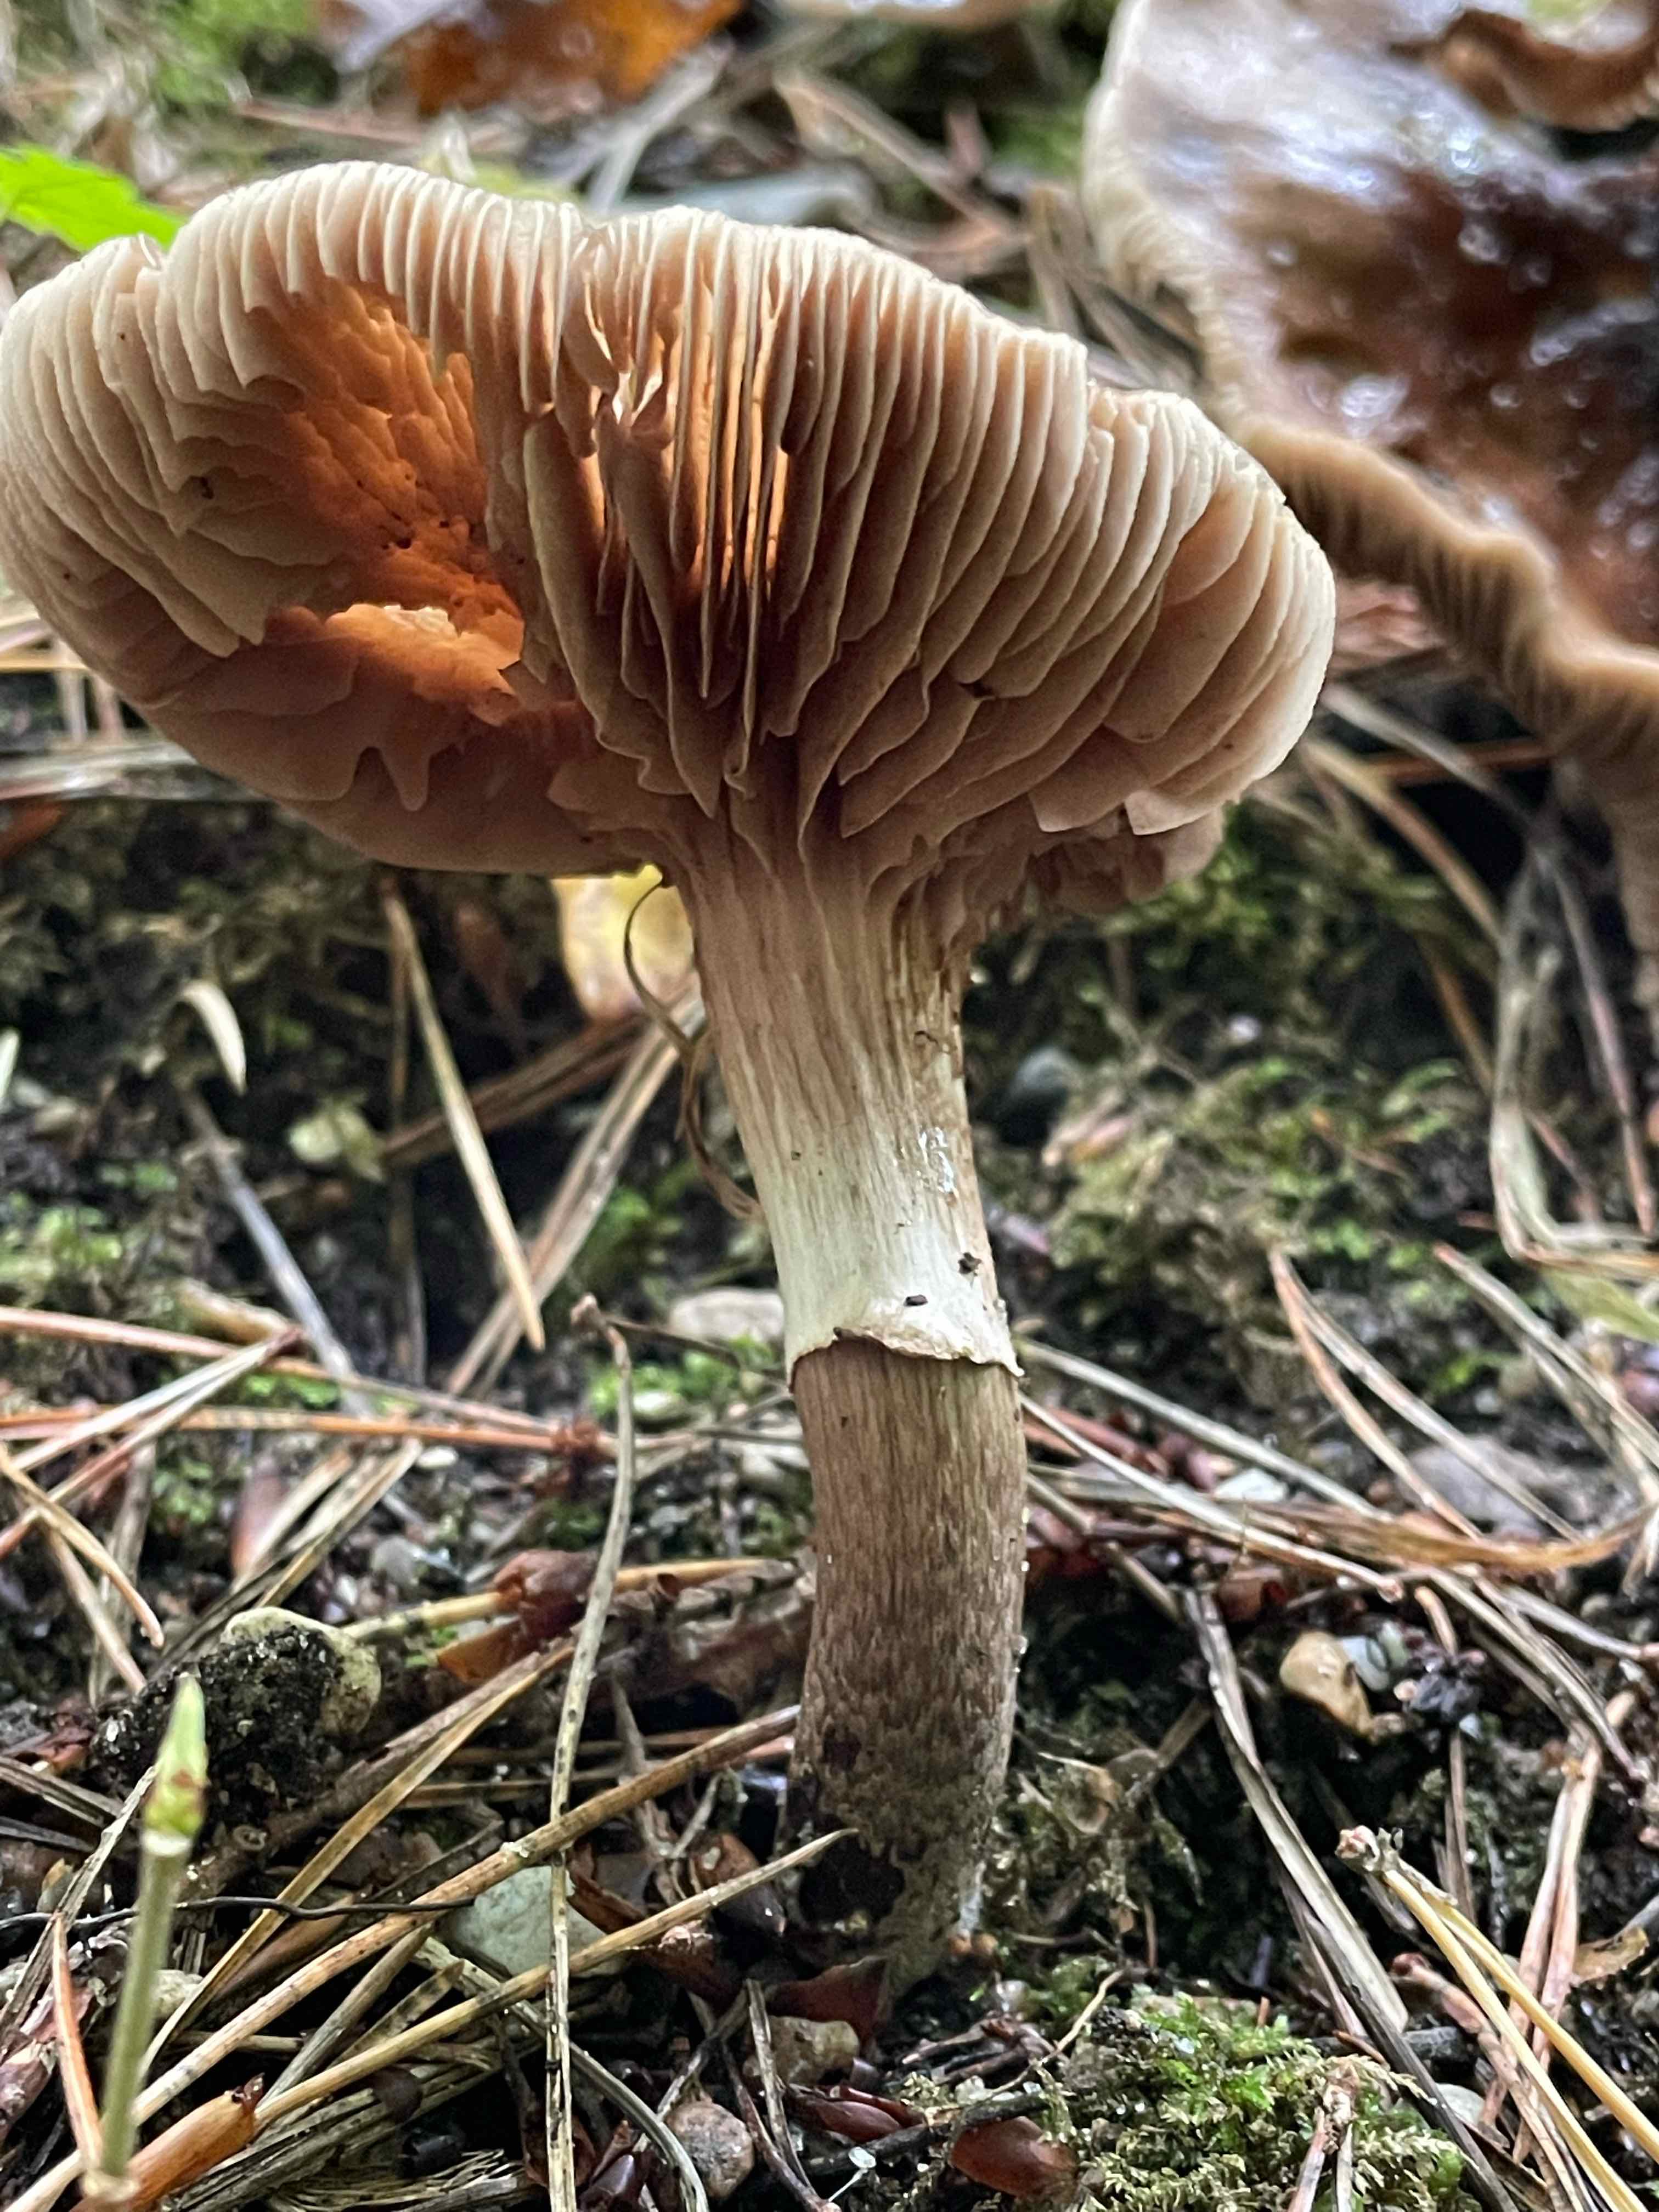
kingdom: Fungi
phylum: Basidiomycota
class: Agaricomycetes
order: Agaricales
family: Tubariaceae
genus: Cyclocybe
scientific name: Cyclocybe erebia
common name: mørk agerhat
